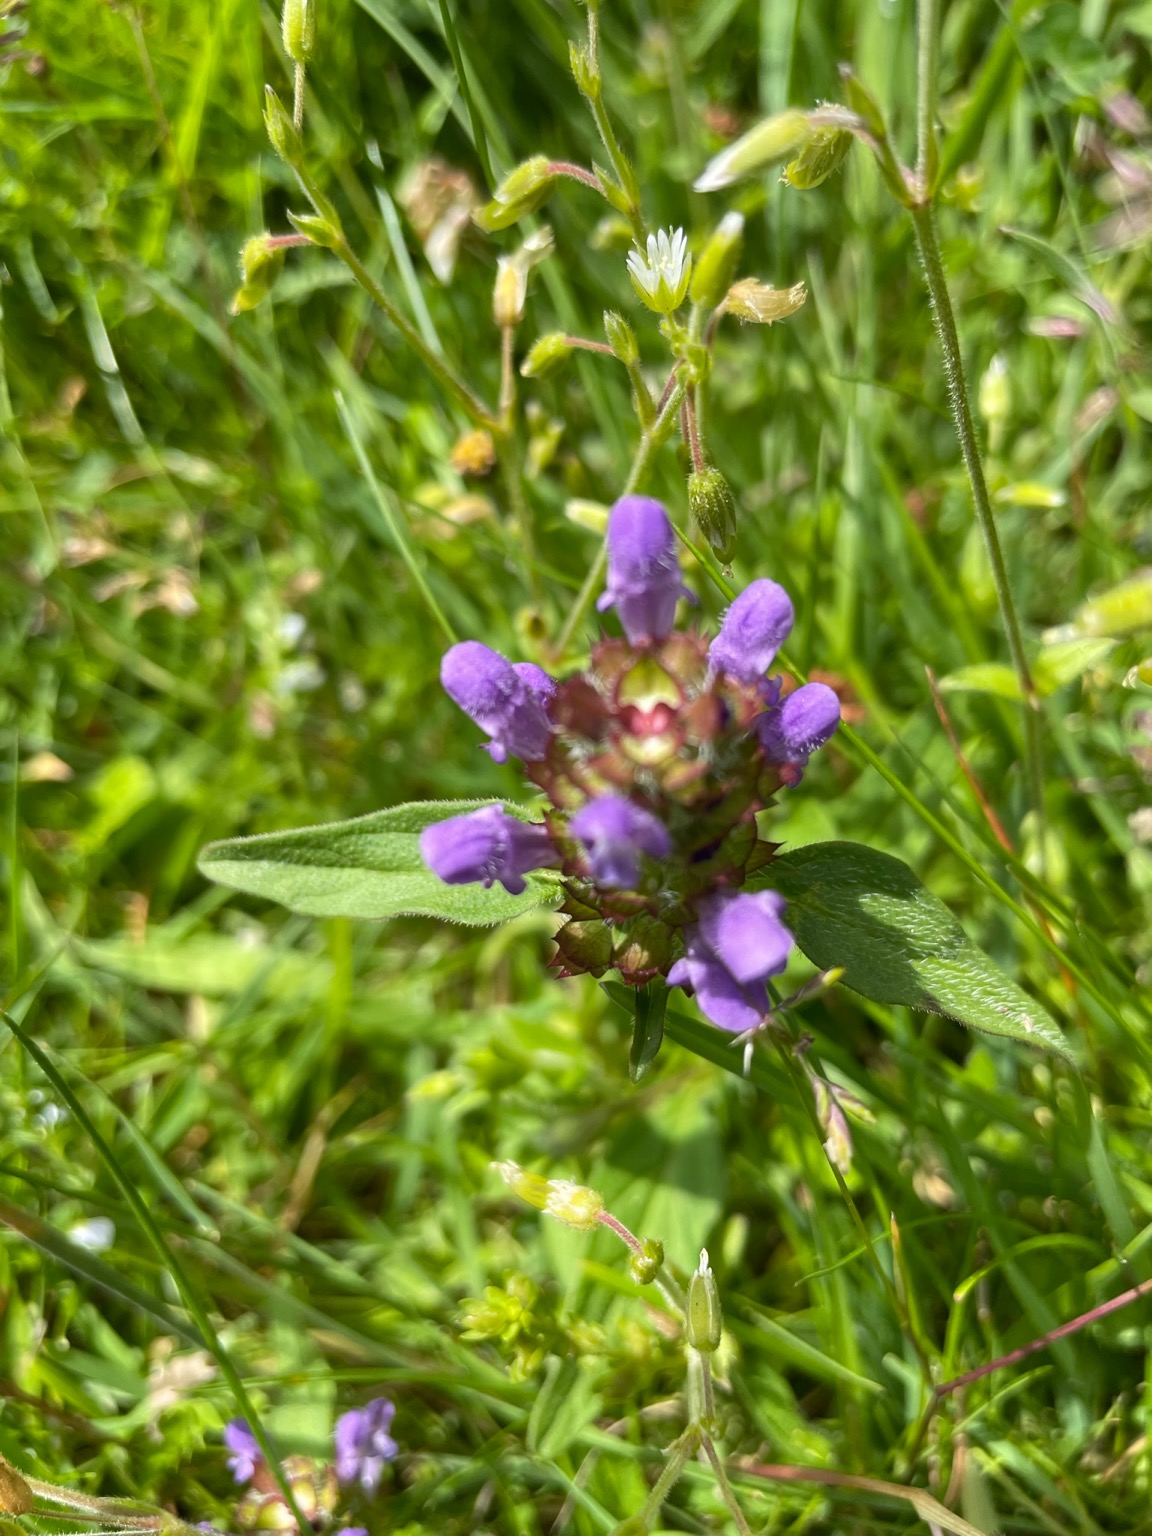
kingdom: Plantae
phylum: Tracheophyta
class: Magnoliopsida
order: Lamiales
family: Lamiaceae
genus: Prunella
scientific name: Prunella vulgaris
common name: Almindelig brunelle
